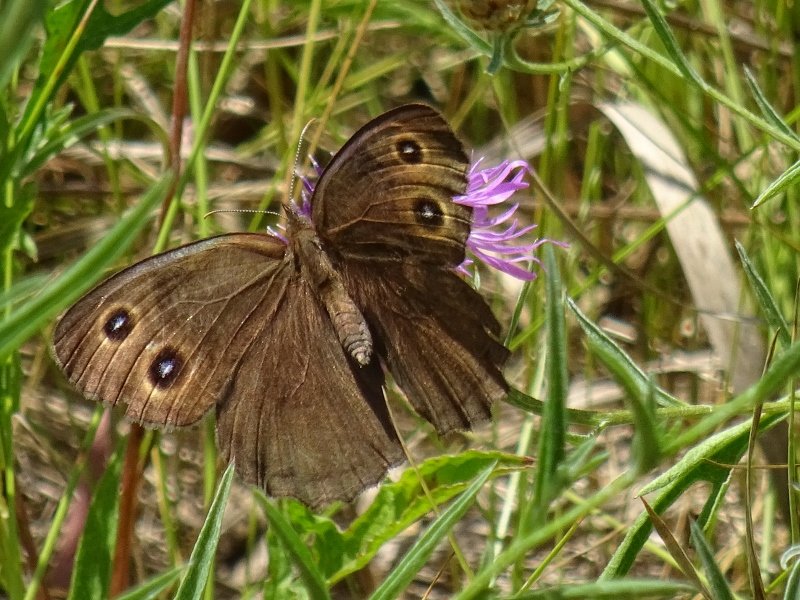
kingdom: Animalia
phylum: Arthropoda
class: Insecta
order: Lepidoptera
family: Nymphalidae
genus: Cercyonis
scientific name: Cercyonis pegala
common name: Common Wood-Nymph
